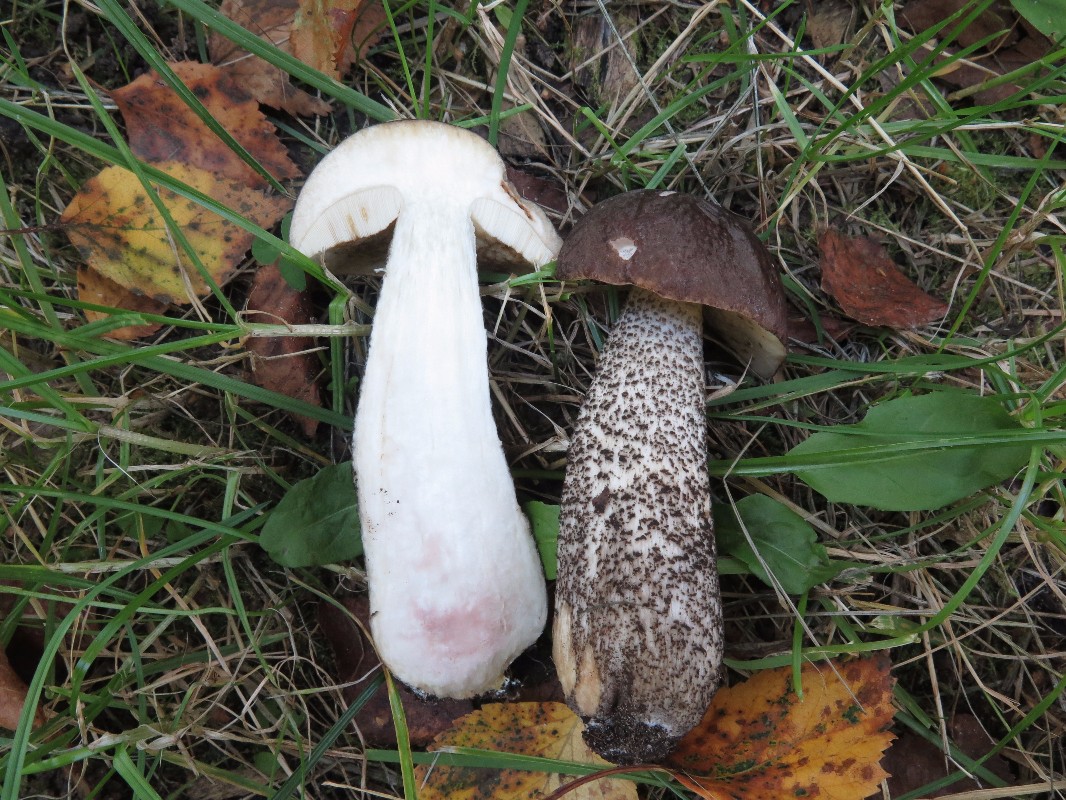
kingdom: Fungi
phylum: Basidiomycota
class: Agaricomycetes
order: Boletales
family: Boletaceae
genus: Leccinum
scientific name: Leccinum scabrum
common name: brun skælrørhat
